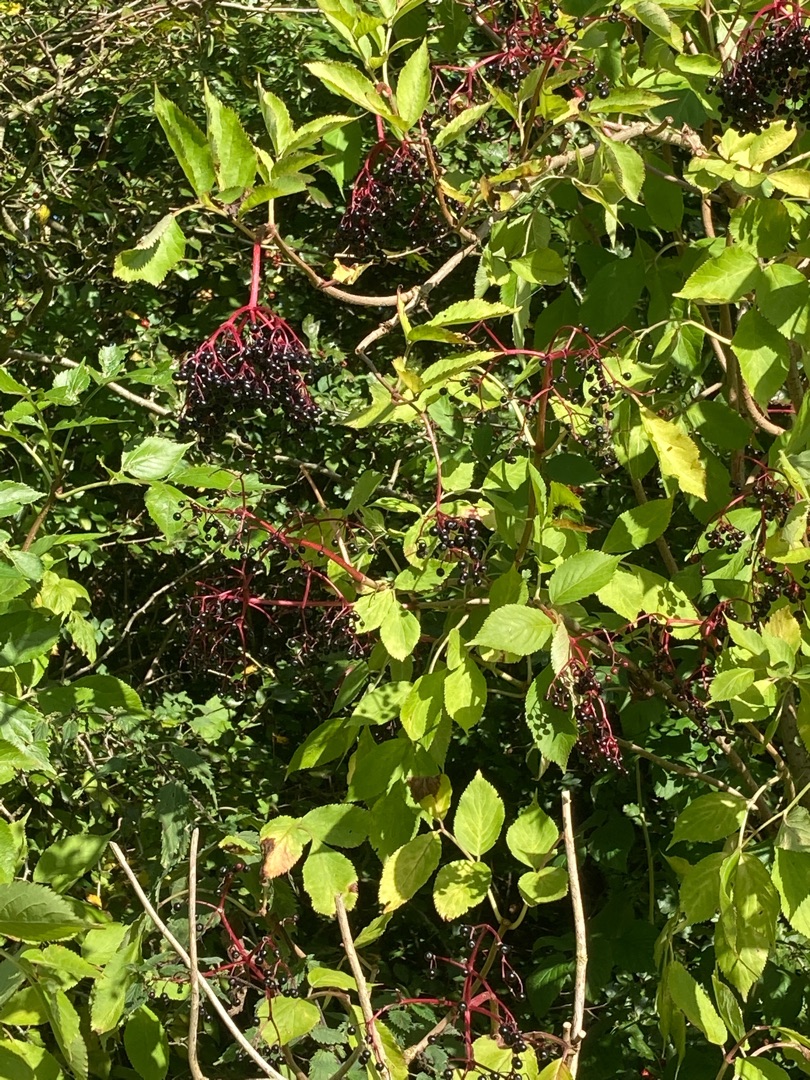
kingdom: Plantae
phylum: Tracheophyta
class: Magnoliopsida
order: Dipsacales
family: Viburnaceae
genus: Sambucus
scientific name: Sambucus nigra
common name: Almindelig hyld
